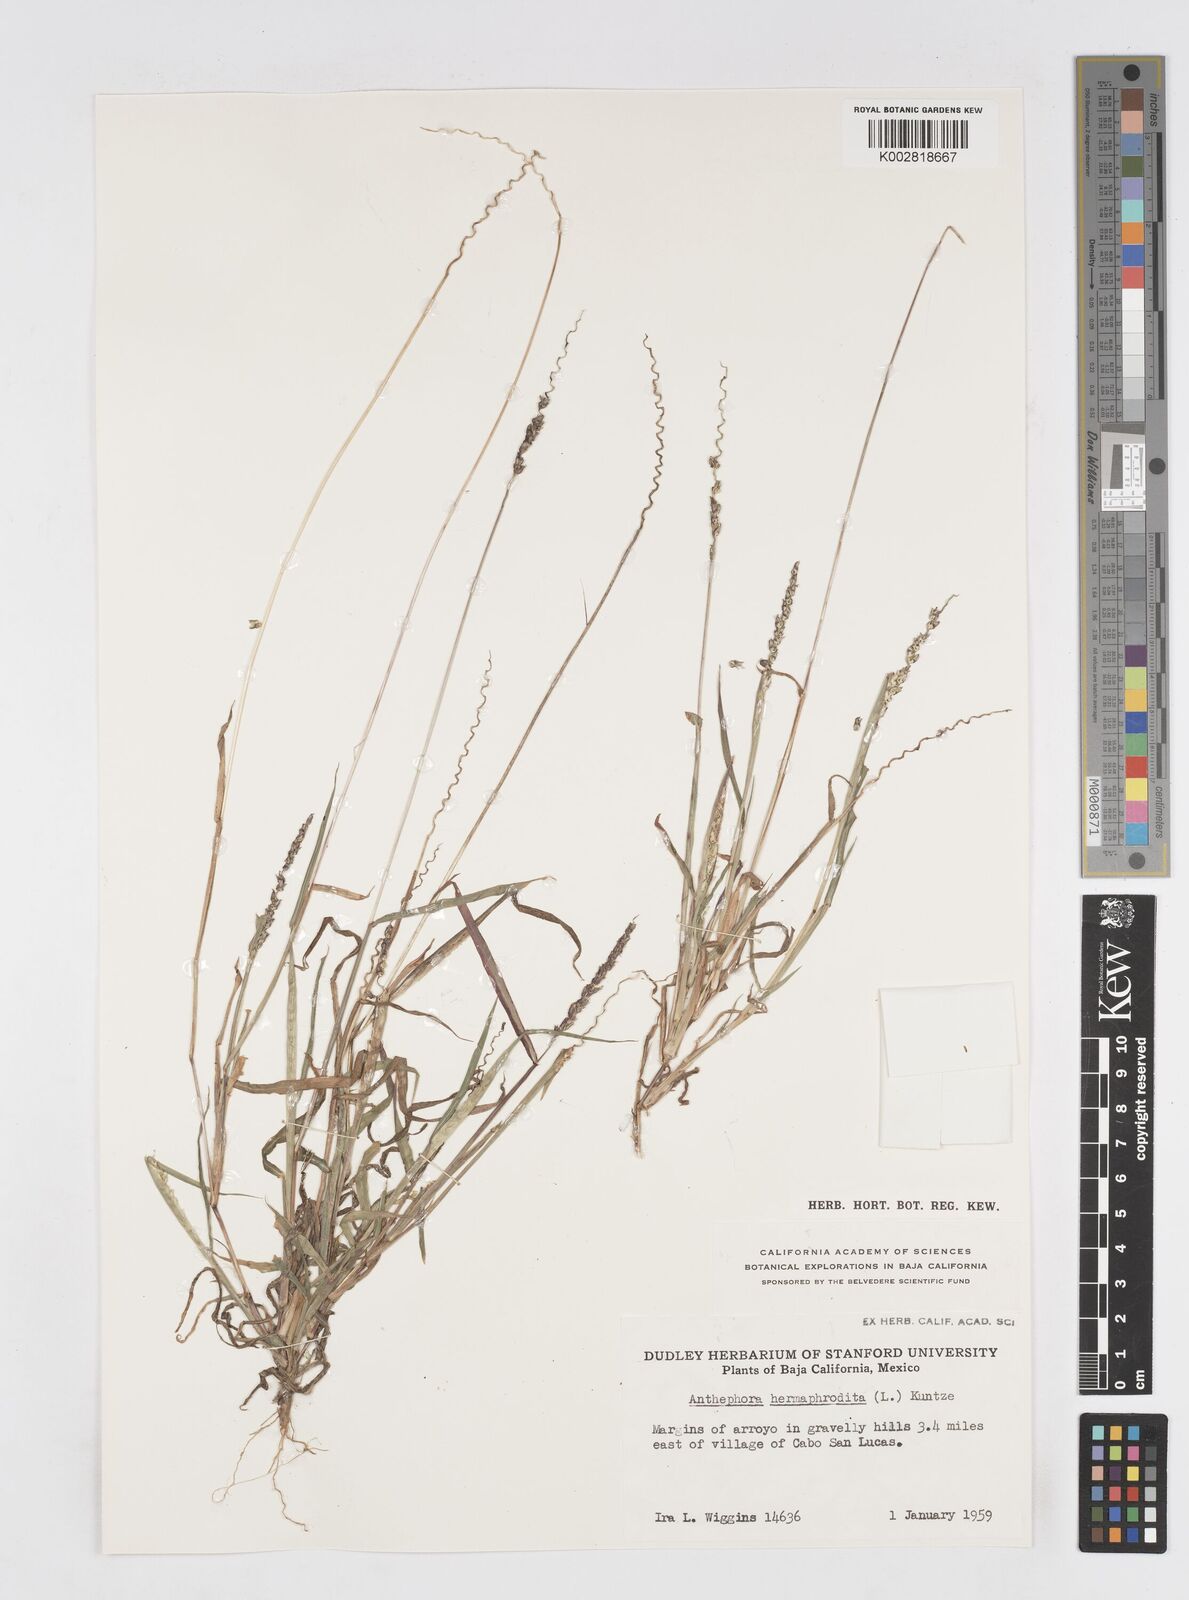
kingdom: Plantae
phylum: Tracheophyta
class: Liliopsida
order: Poales
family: Poaceae
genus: Anthephora
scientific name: Anthephora hermaphrodita
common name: Oldfield grass
